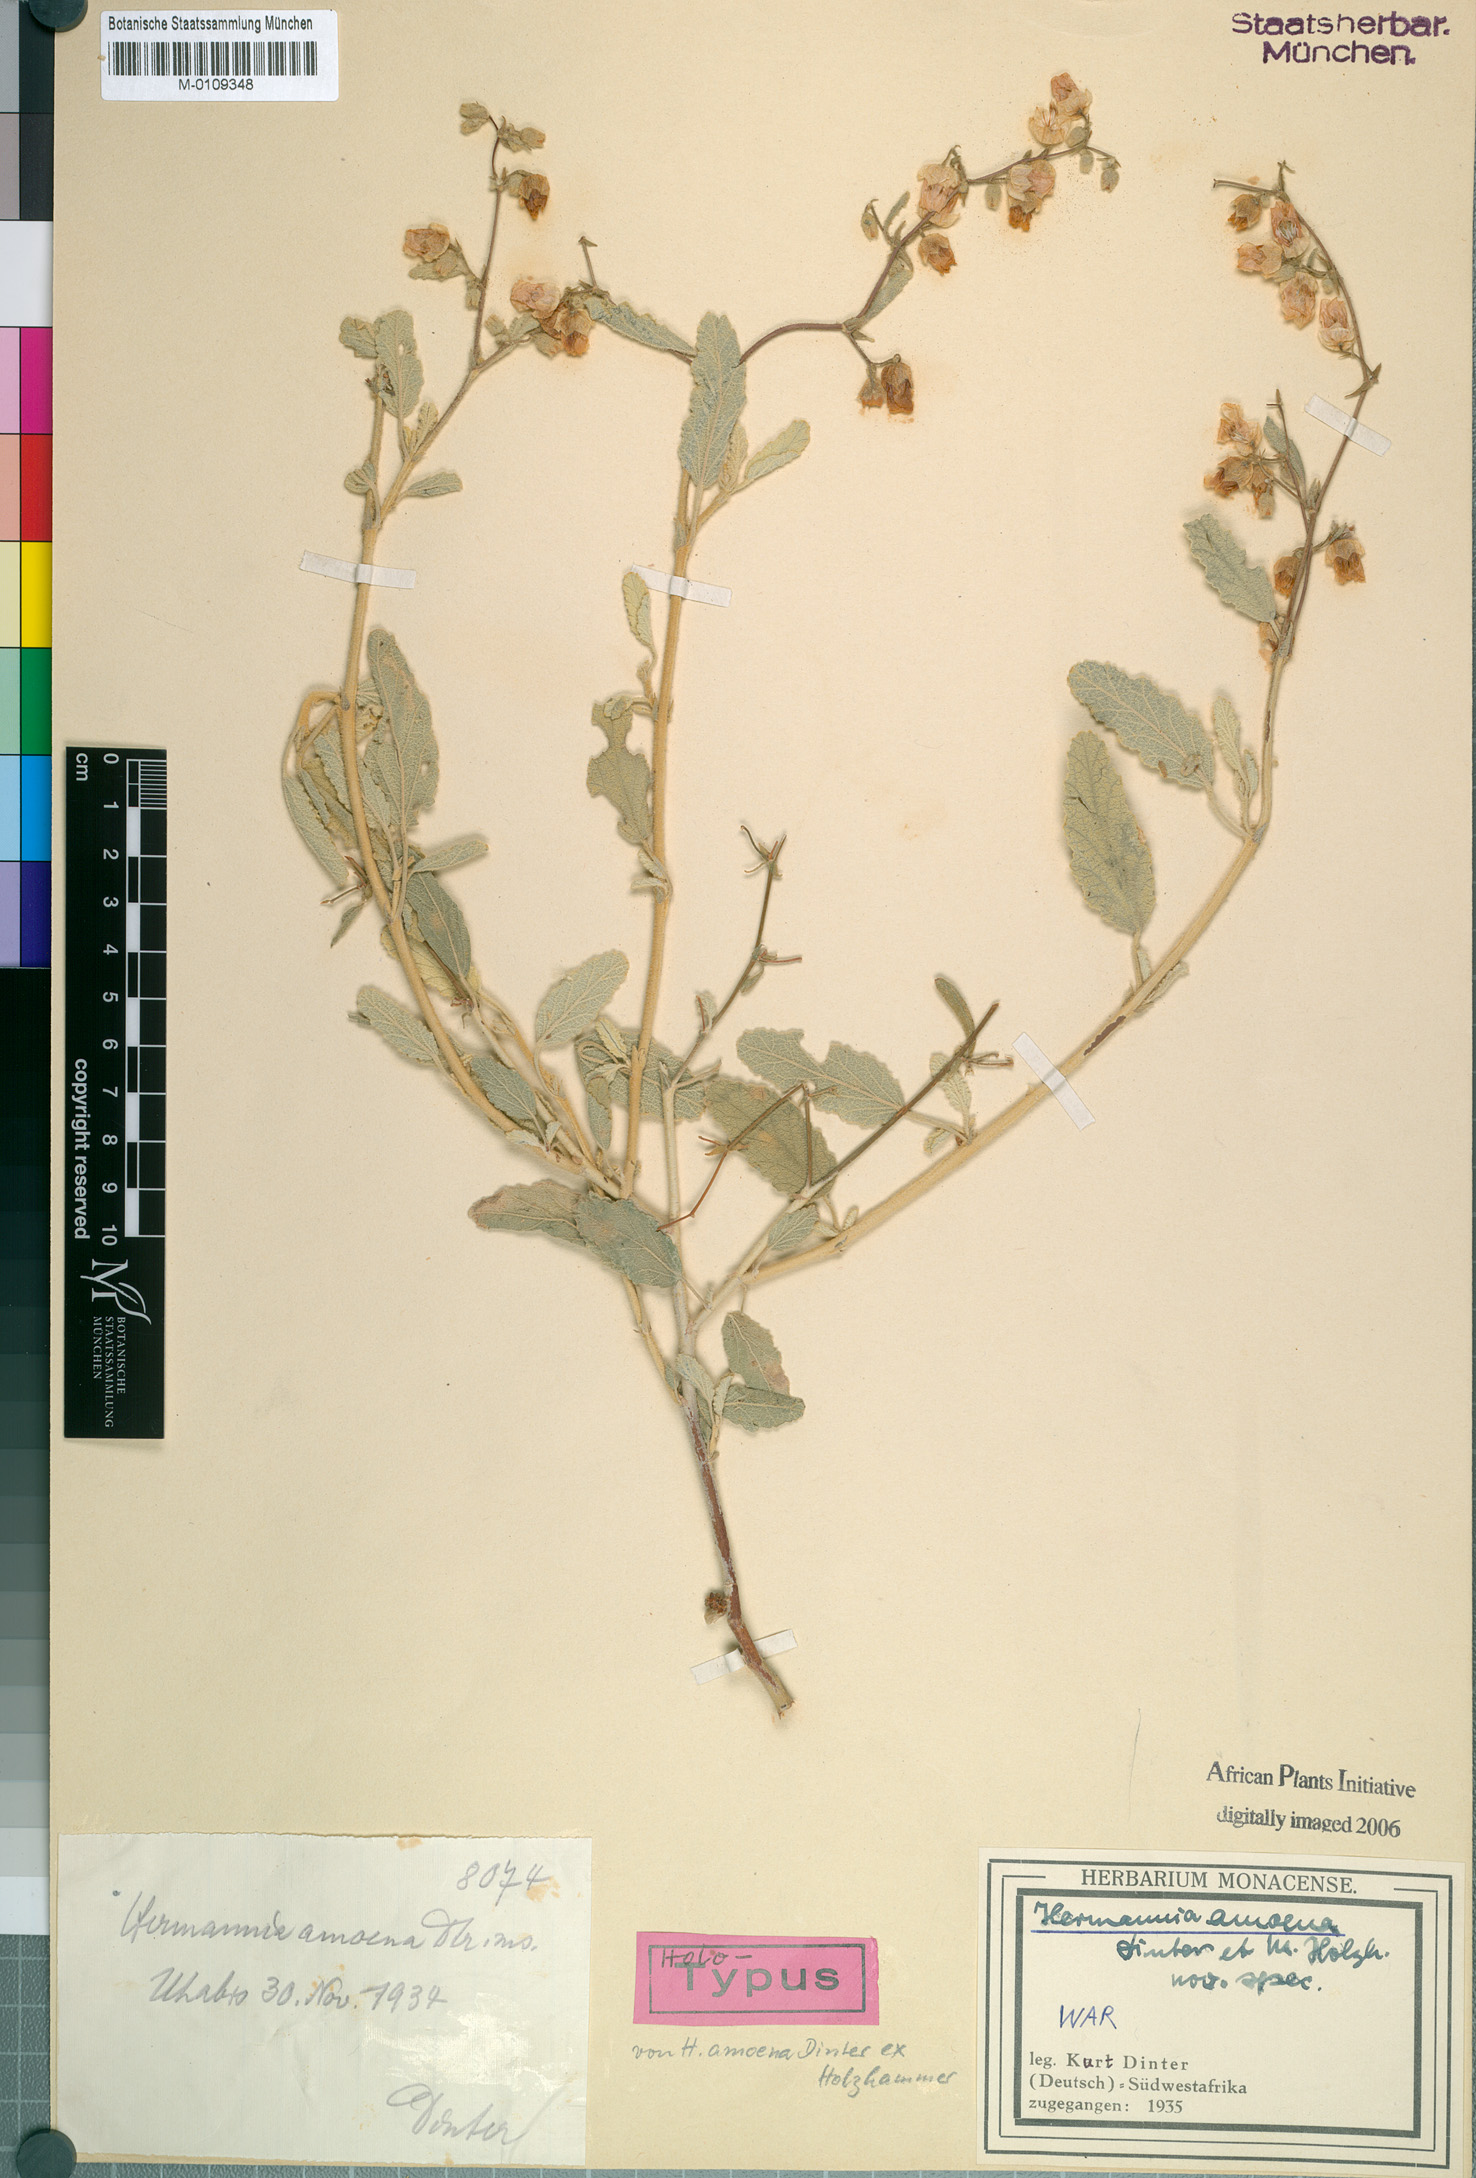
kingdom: Plantae
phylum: Tracheophyta
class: Magnoliopsida
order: Malvales
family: Malvaceae
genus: Hermannia
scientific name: Hermannia amoena
